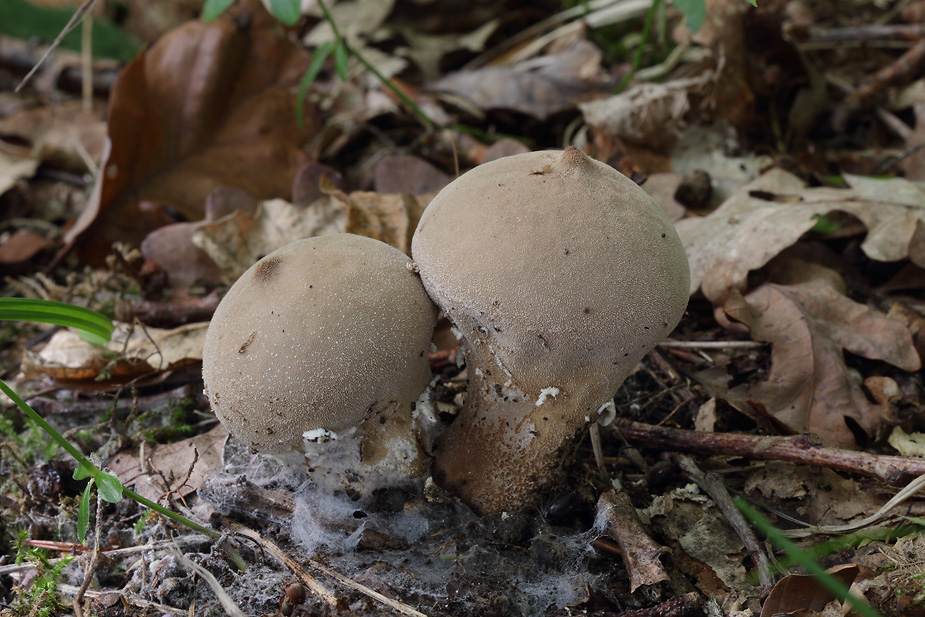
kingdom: Fungi
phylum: Basidiomycota
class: Agaricomycetes
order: Agaricales
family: Lycoperdaceae
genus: Lycoperdon
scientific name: Lycoperdon mammiforme
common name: rosa støvbold
